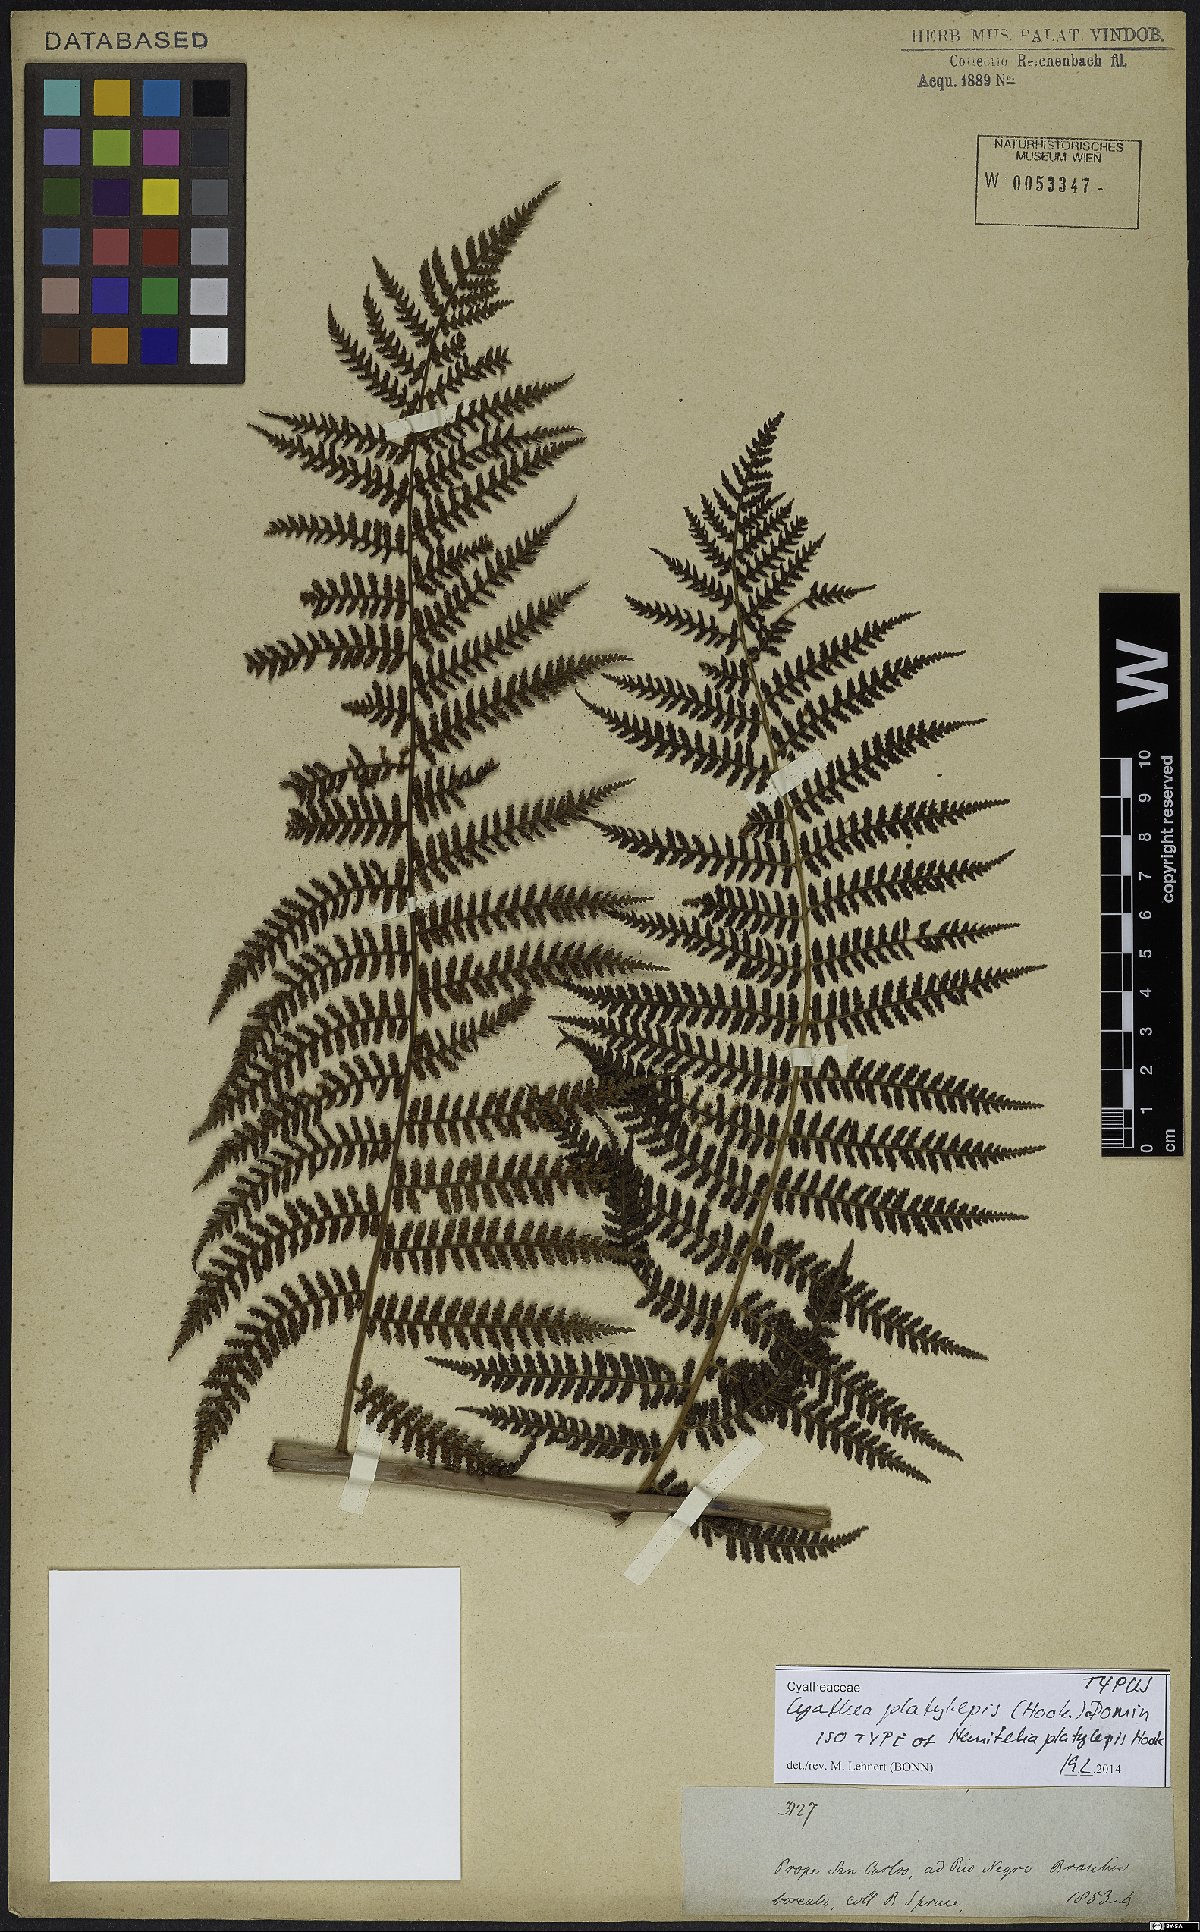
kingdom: Plantae
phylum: Tracheophyta
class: Polypodiopsida
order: Cyatheales
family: Cyatheaceae
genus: Cyathea
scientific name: Cyathea platylepis
